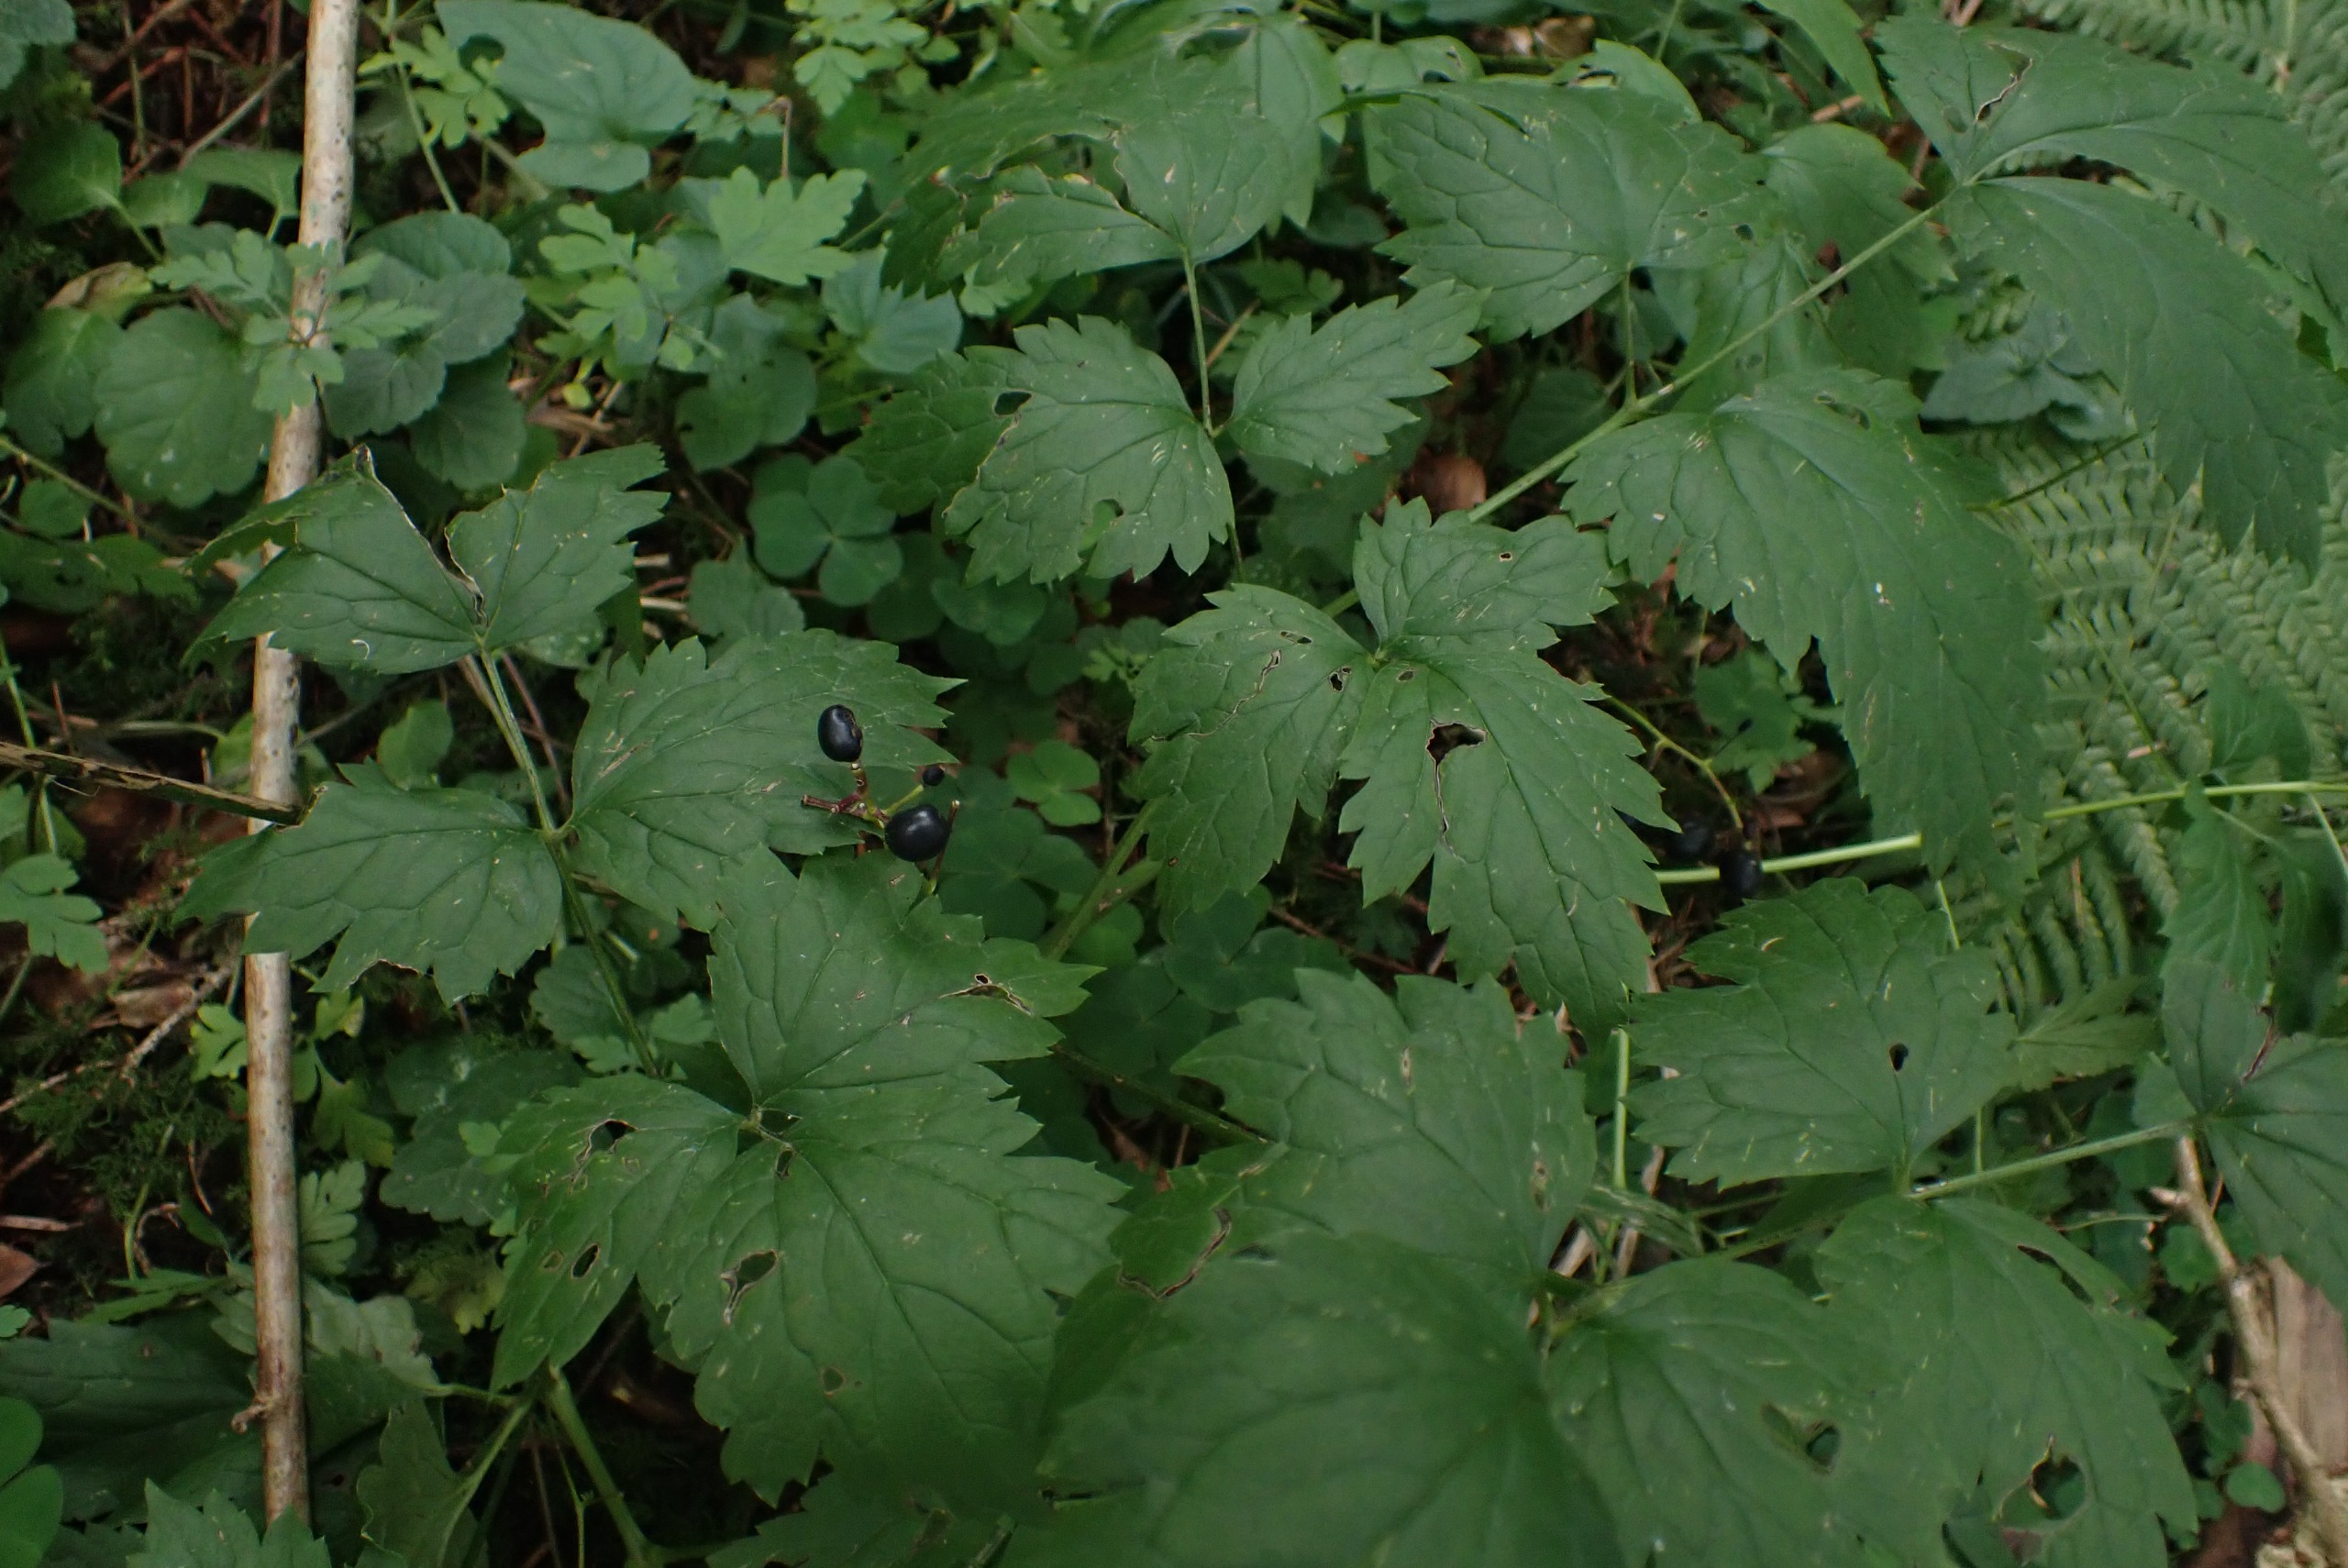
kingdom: Plantae
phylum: Tracheophyta
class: Magnoliopsida
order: Ranunculales
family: Ranunculaceae
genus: Actaea
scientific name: Actaea spicata
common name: Druemunke
